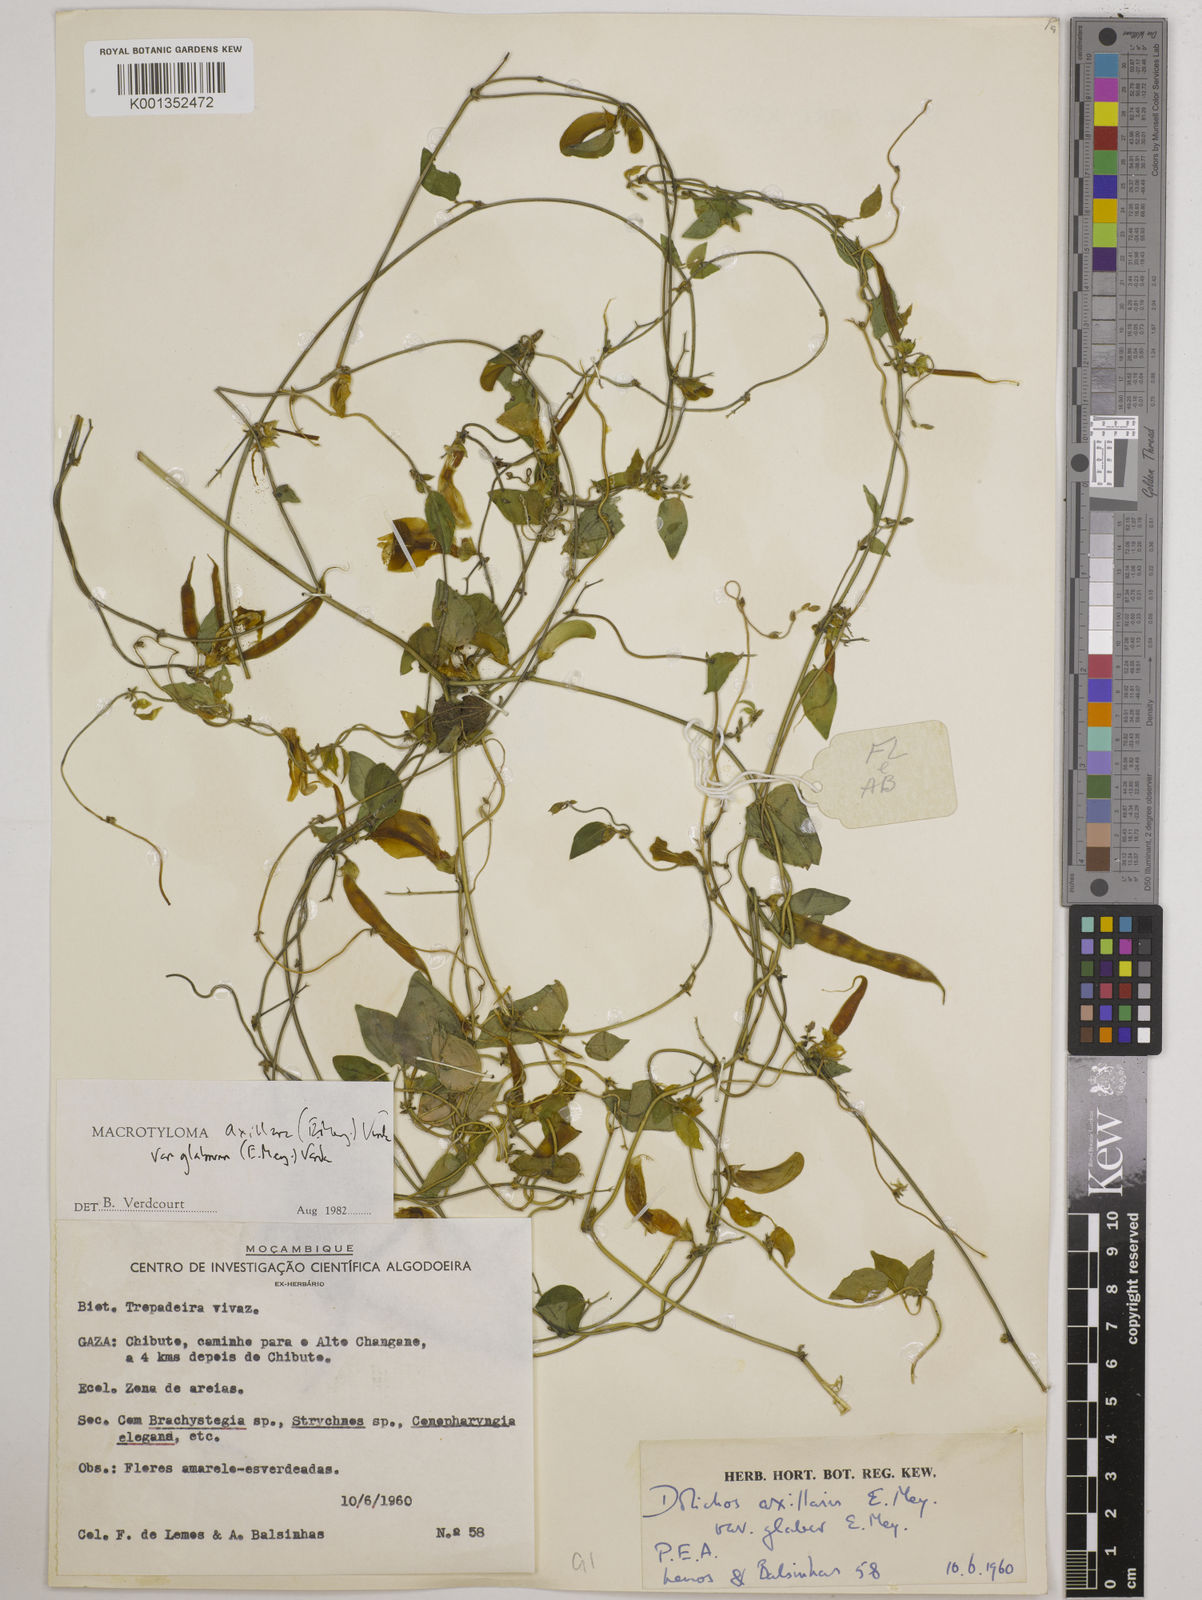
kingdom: Plantae
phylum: Tracheophyta
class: Magnoliopsida
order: Fabales
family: Fabaceae
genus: Macrotyloma
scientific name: Macrotyloma
